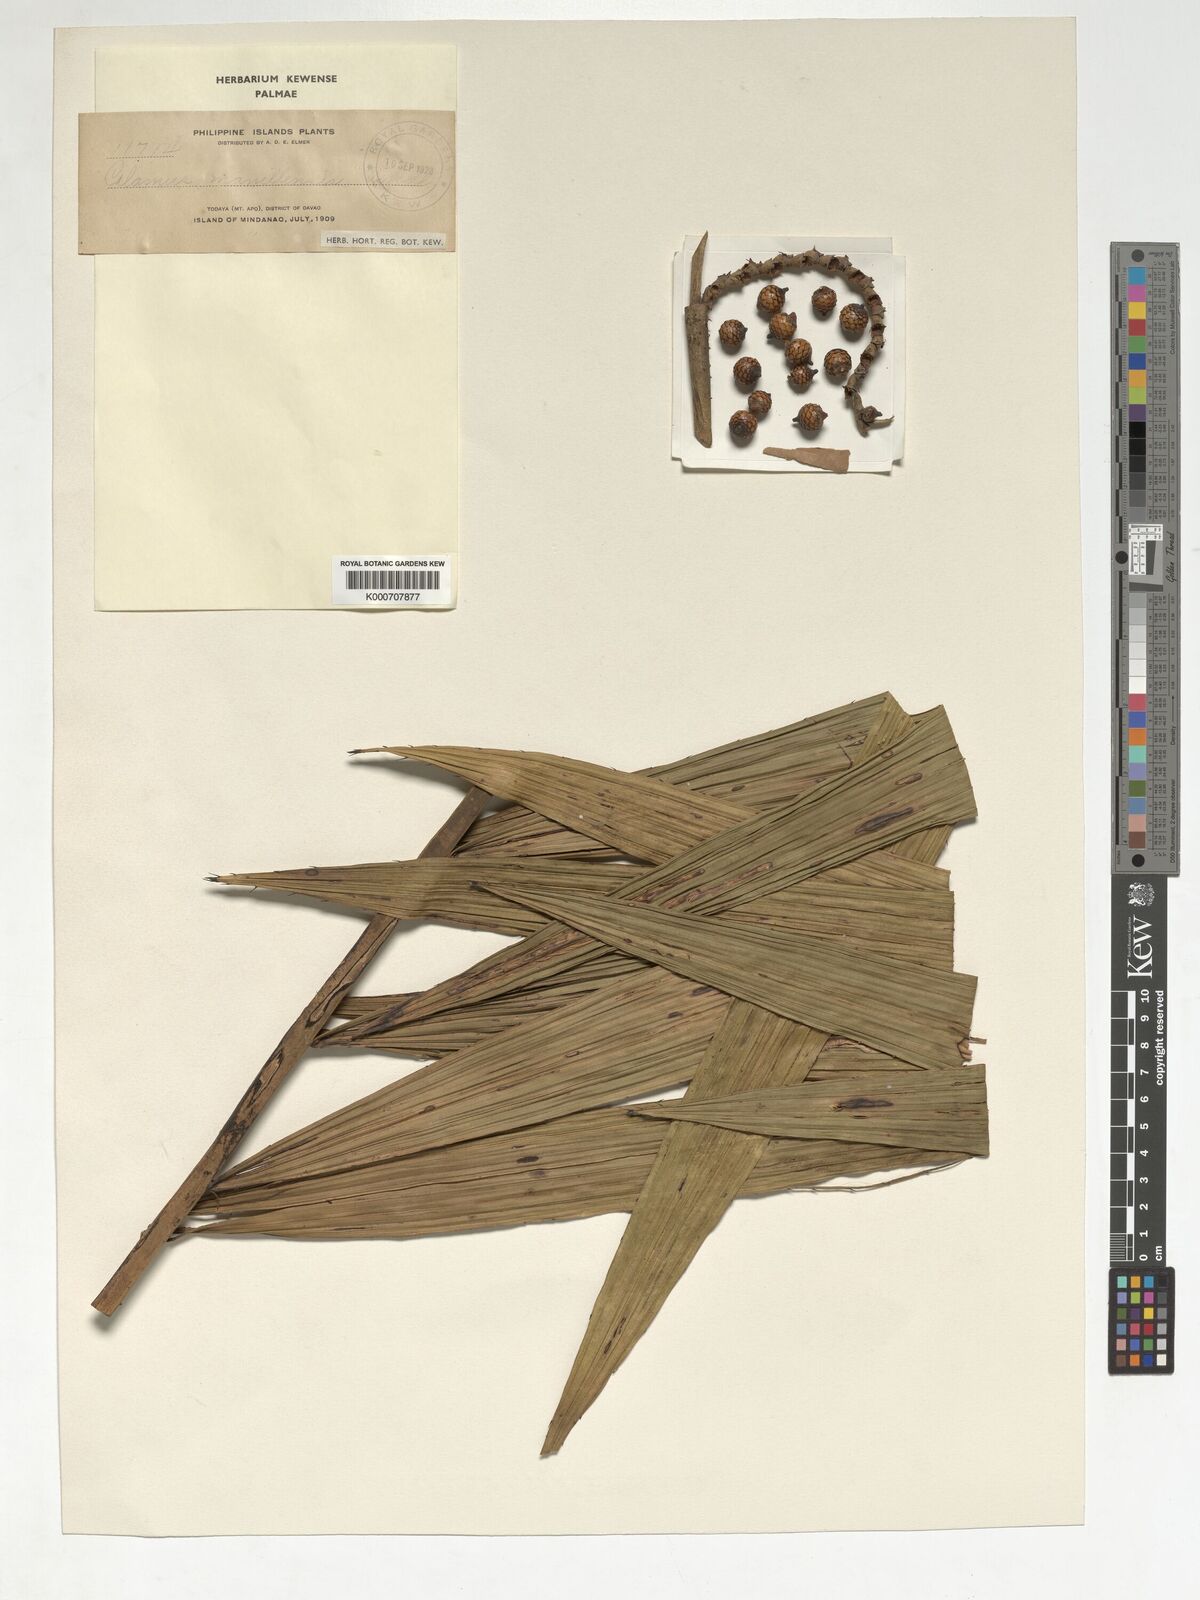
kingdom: Plantae
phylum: Tracheophyta
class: Liliopsida
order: Arecales
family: Arecaceae
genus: Calamus
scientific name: Calamus manillensis
